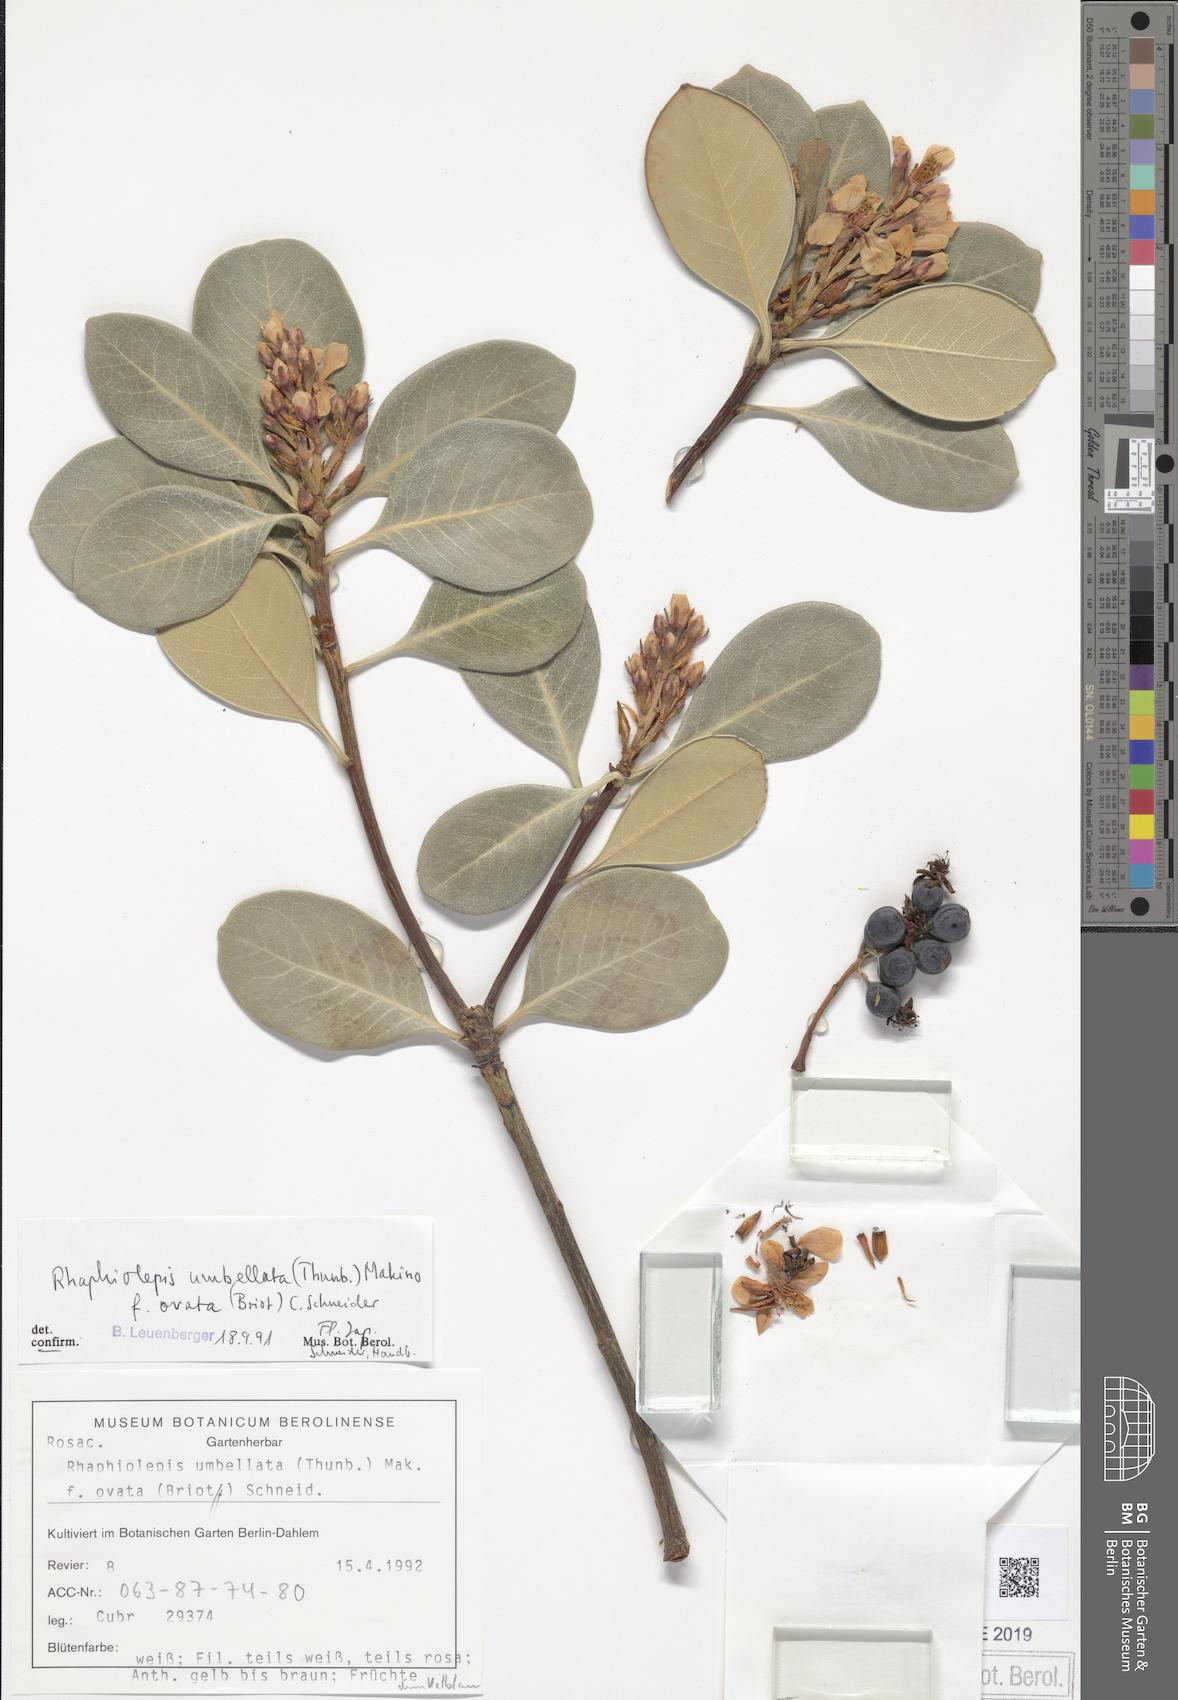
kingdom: Plantae
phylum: Tracheophyta
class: Magnoliopsida
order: Rosales
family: Rosaceae
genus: Rhaphiolepis
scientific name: Rhaphiolepis integerrima
